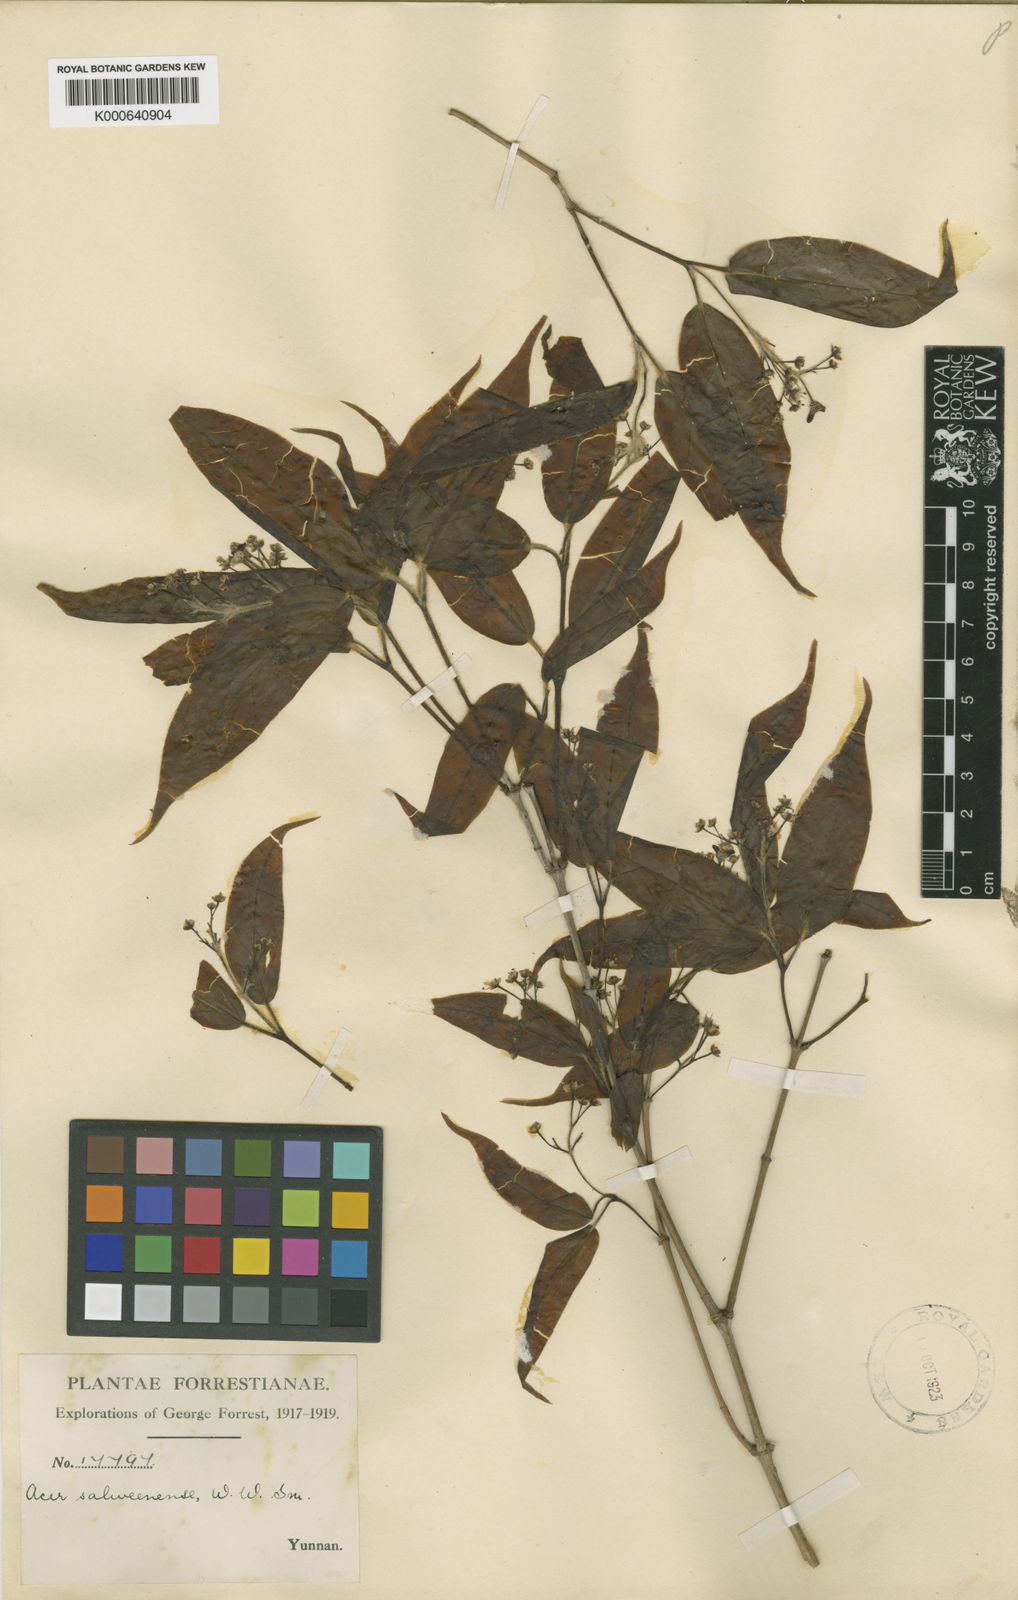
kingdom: Plantae
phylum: Tracheophyta
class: Magnoliopsida
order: Sapindales
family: Sapindaceae
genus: Acer
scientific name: Acer laevigatum
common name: Nepal maple
